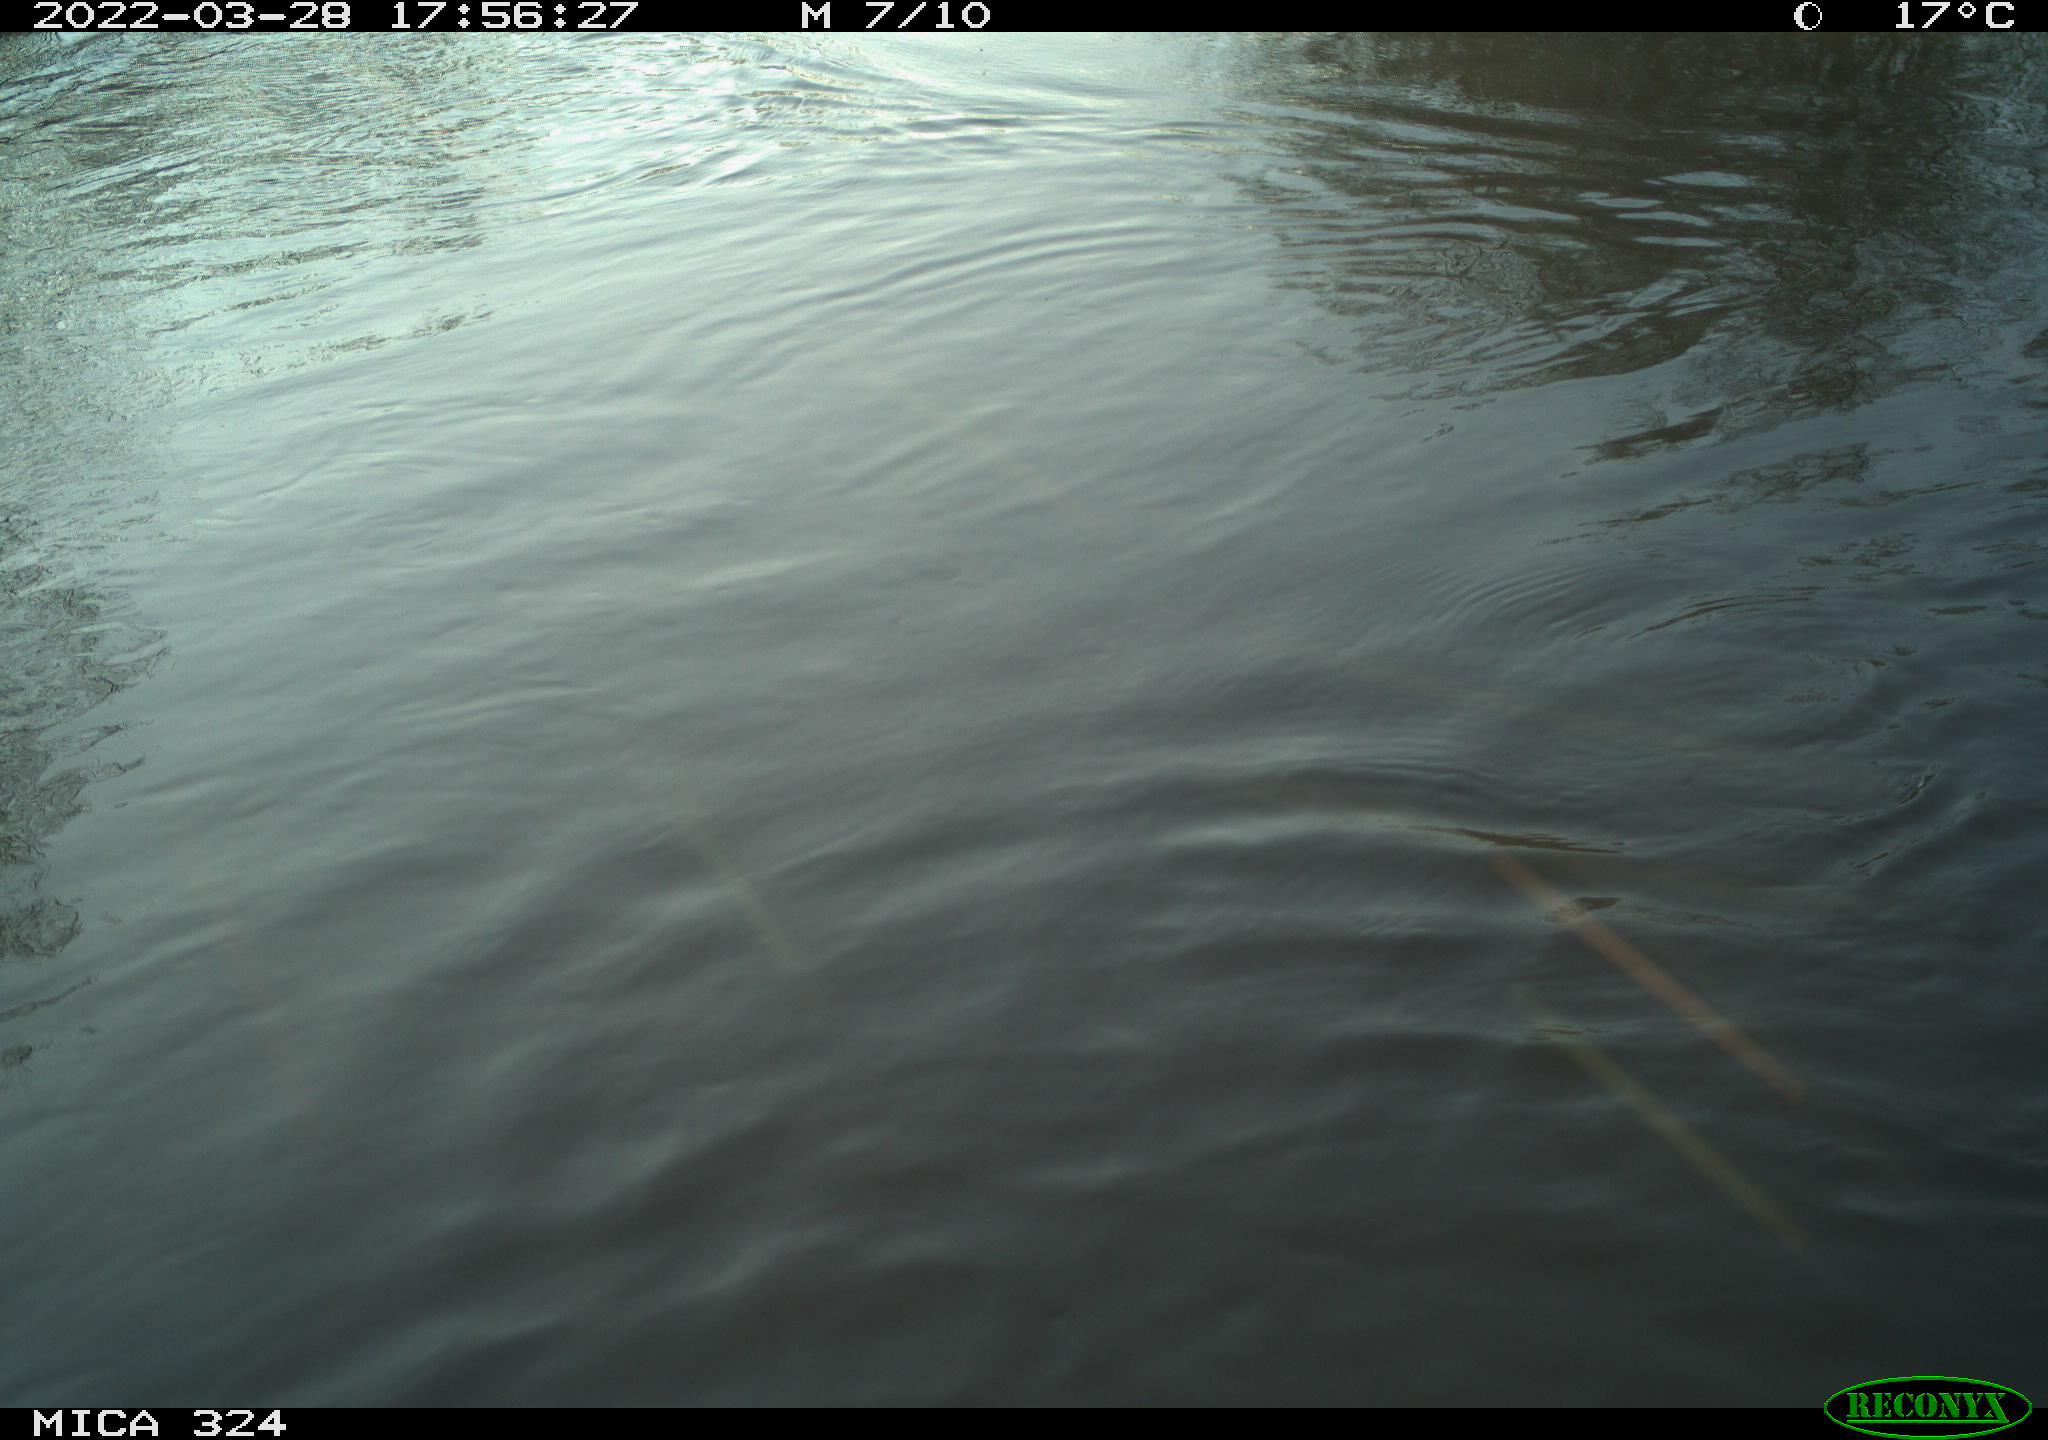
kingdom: Animalia
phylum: Chordata
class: Mammalia
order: Rodentia
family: Cricetidae
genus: Ondatra
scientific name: Ondatra zibethicus
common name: Muskrat
